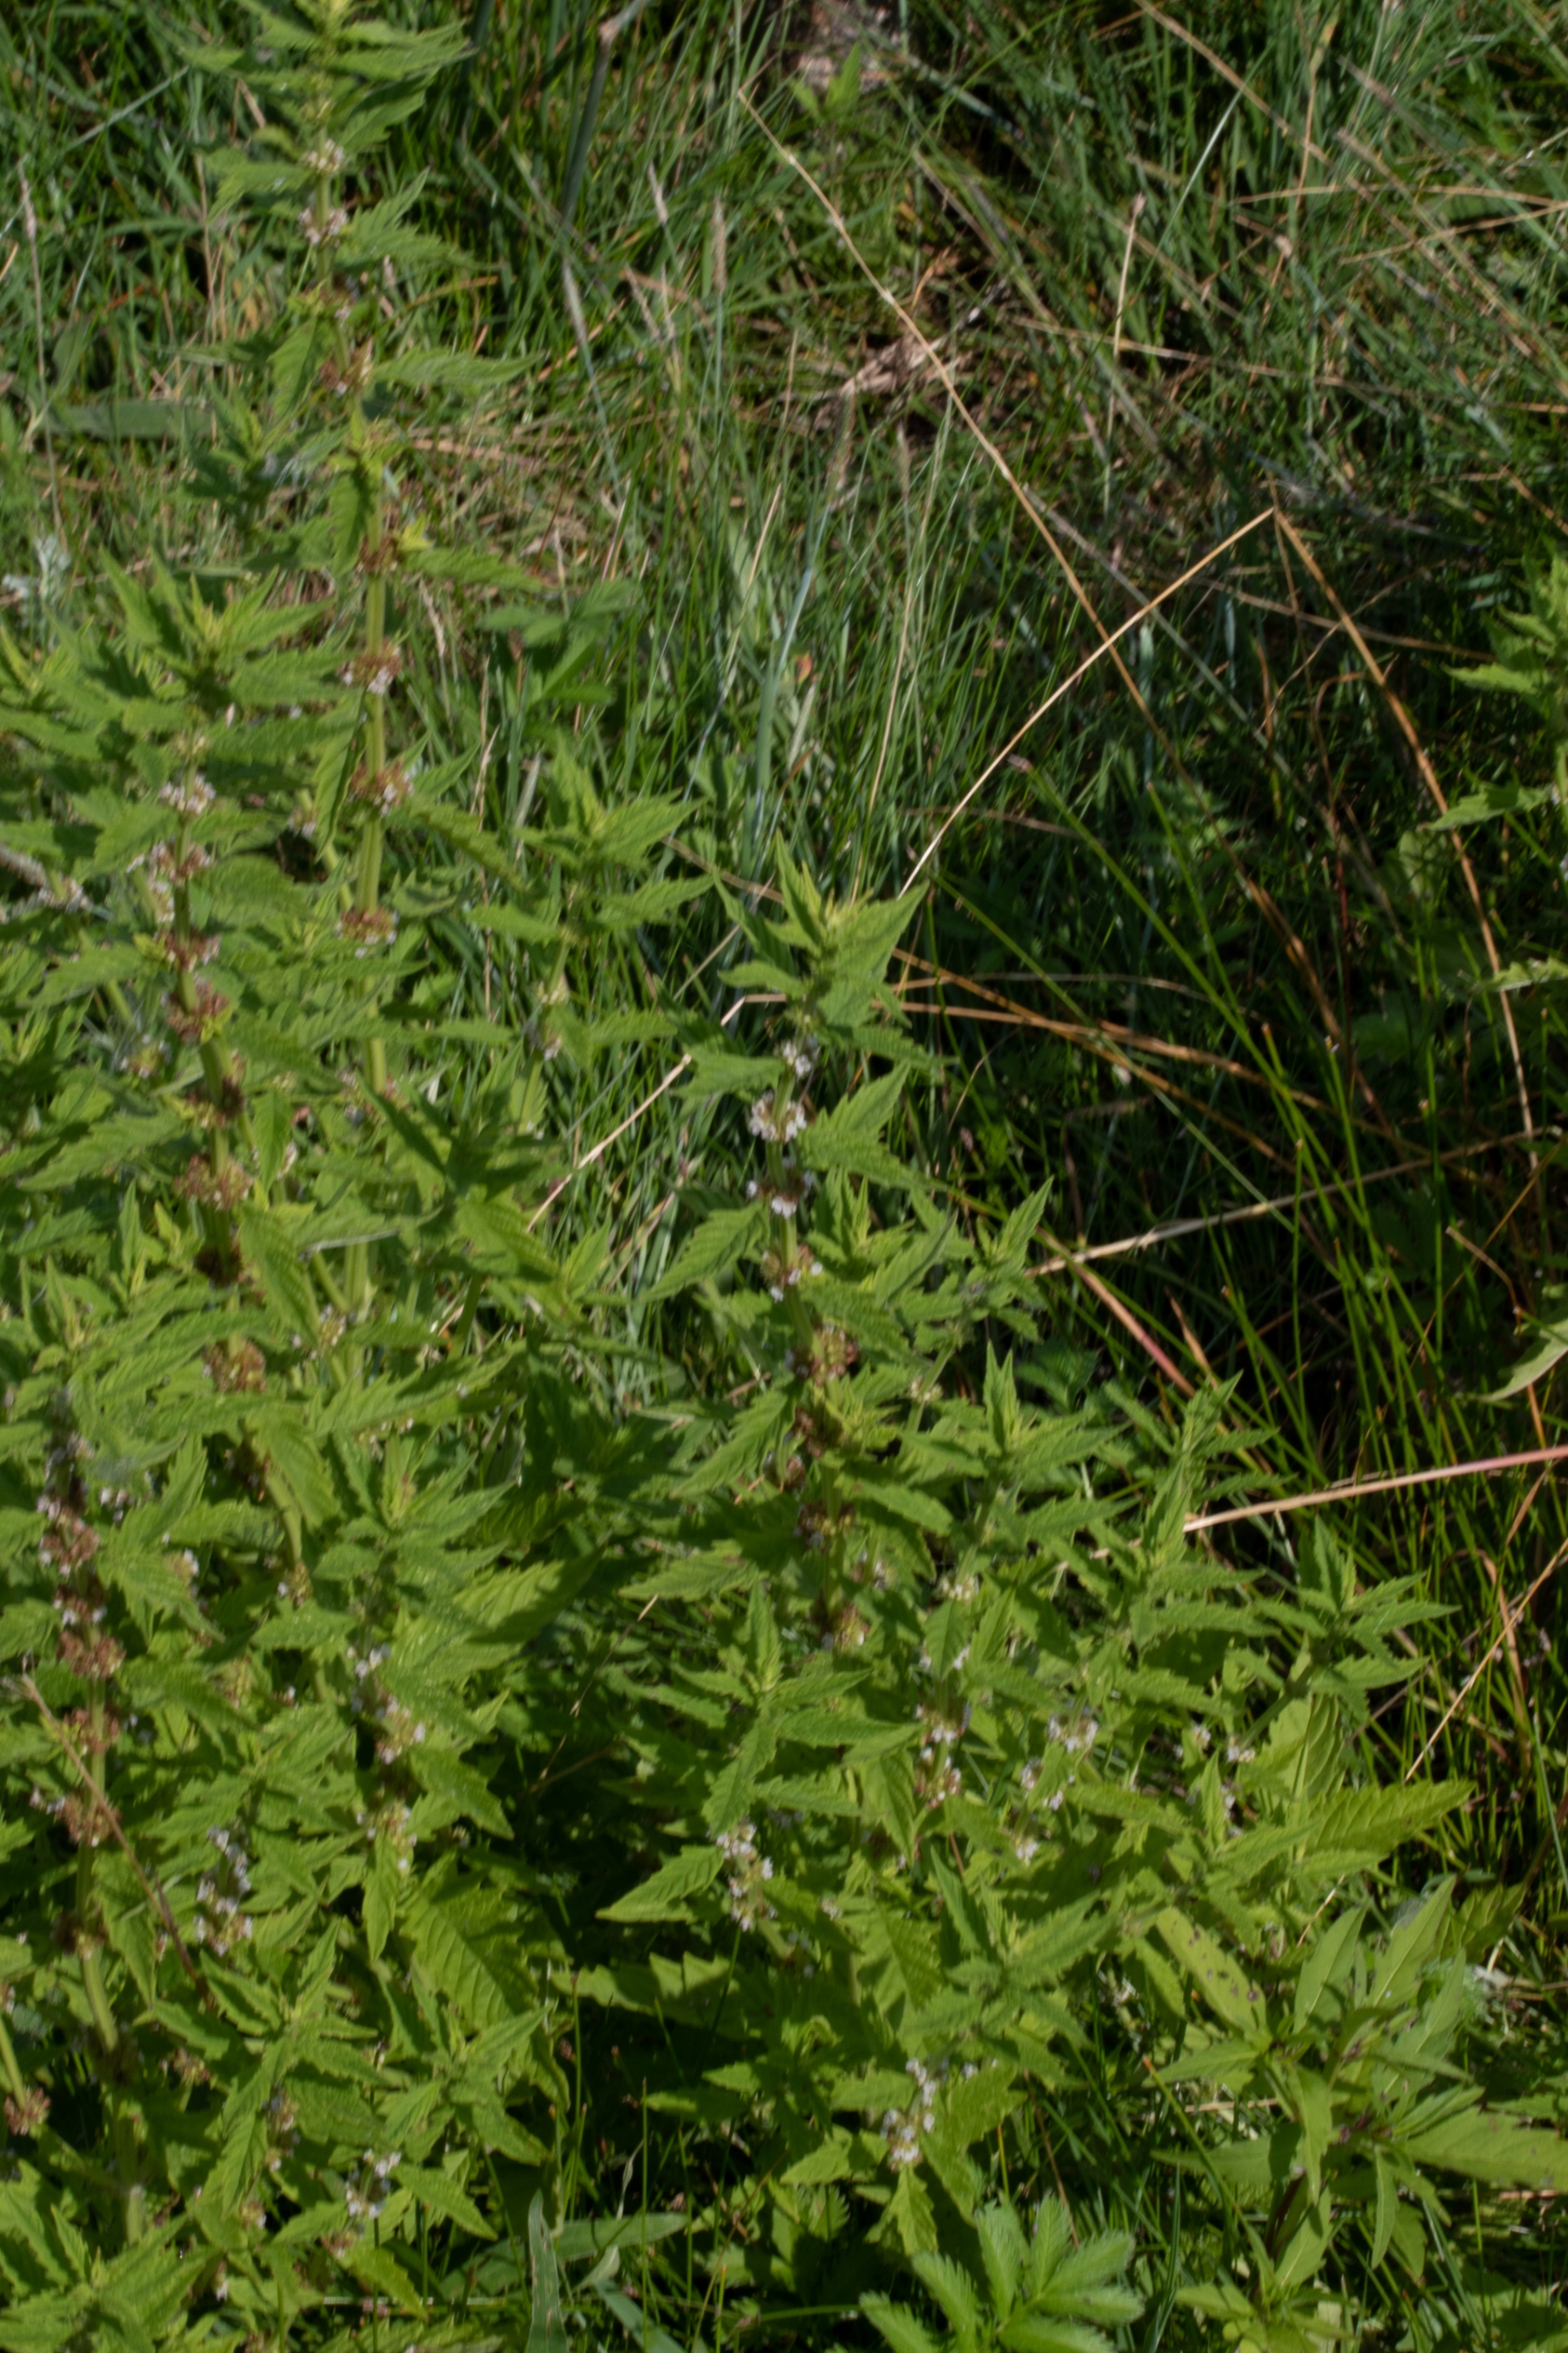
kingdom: Plantae
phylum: Tracheophyta
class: Magnoliopsida
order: Lamiales
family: Lamiaceae
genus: Lycopus
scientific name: Lycopus europaeus
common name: Sværtevæld
